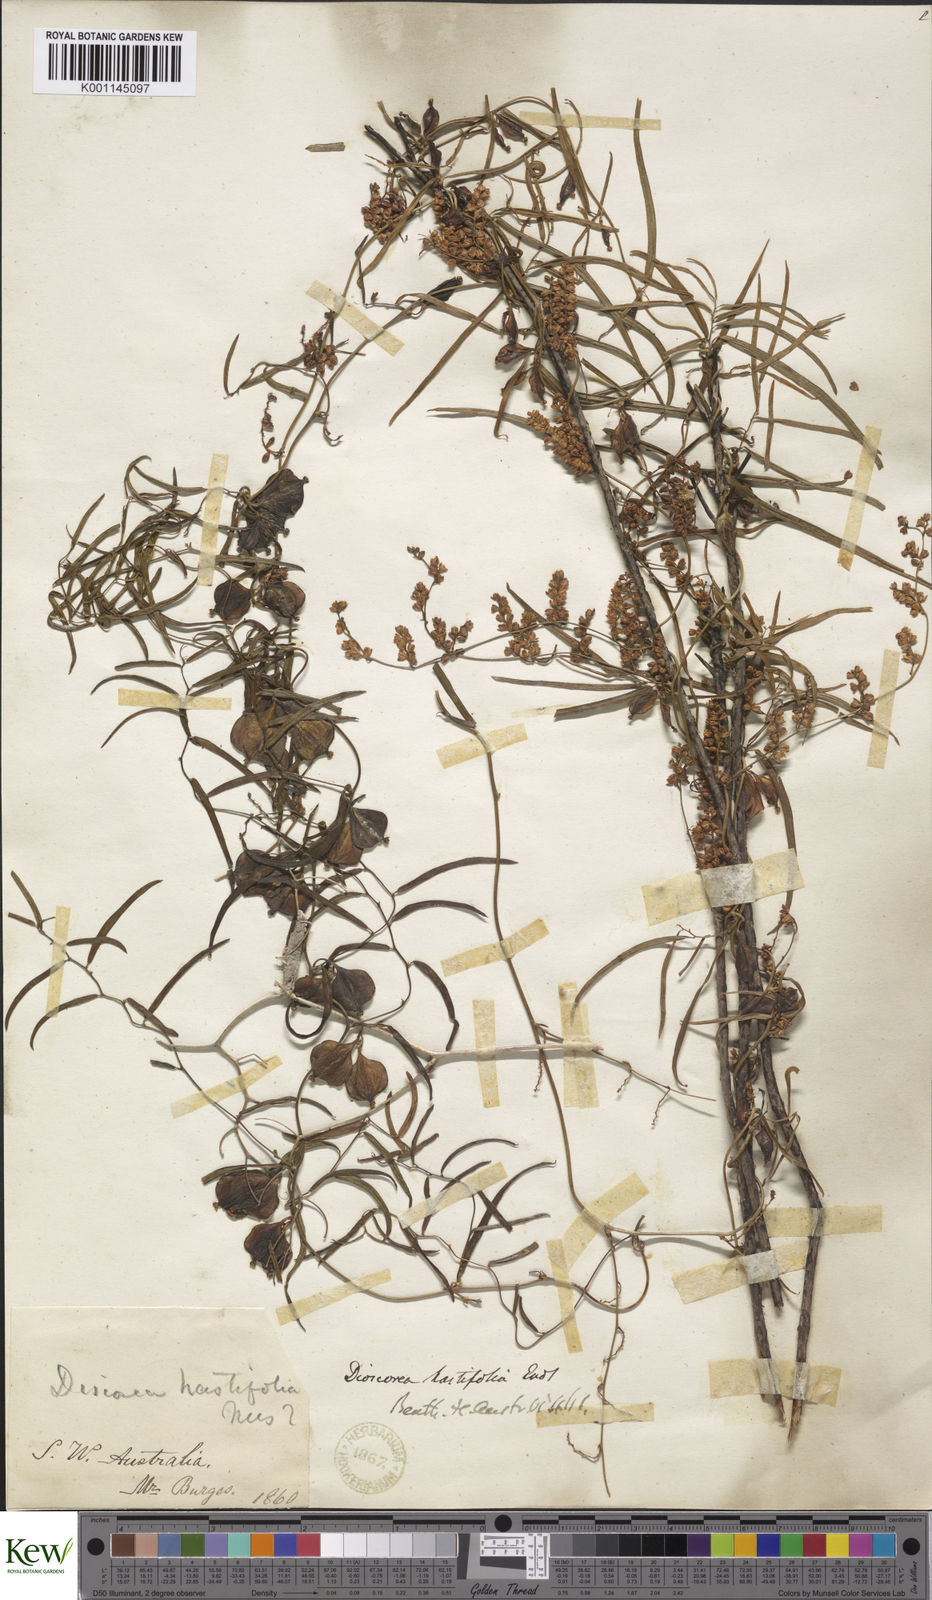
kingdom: Plantae
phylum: Tracheophyta
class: Liliopsida
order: Dioscoreales
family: Dioscoreaceae
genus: Dioscorea
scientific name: Dioscorea hastifolia
